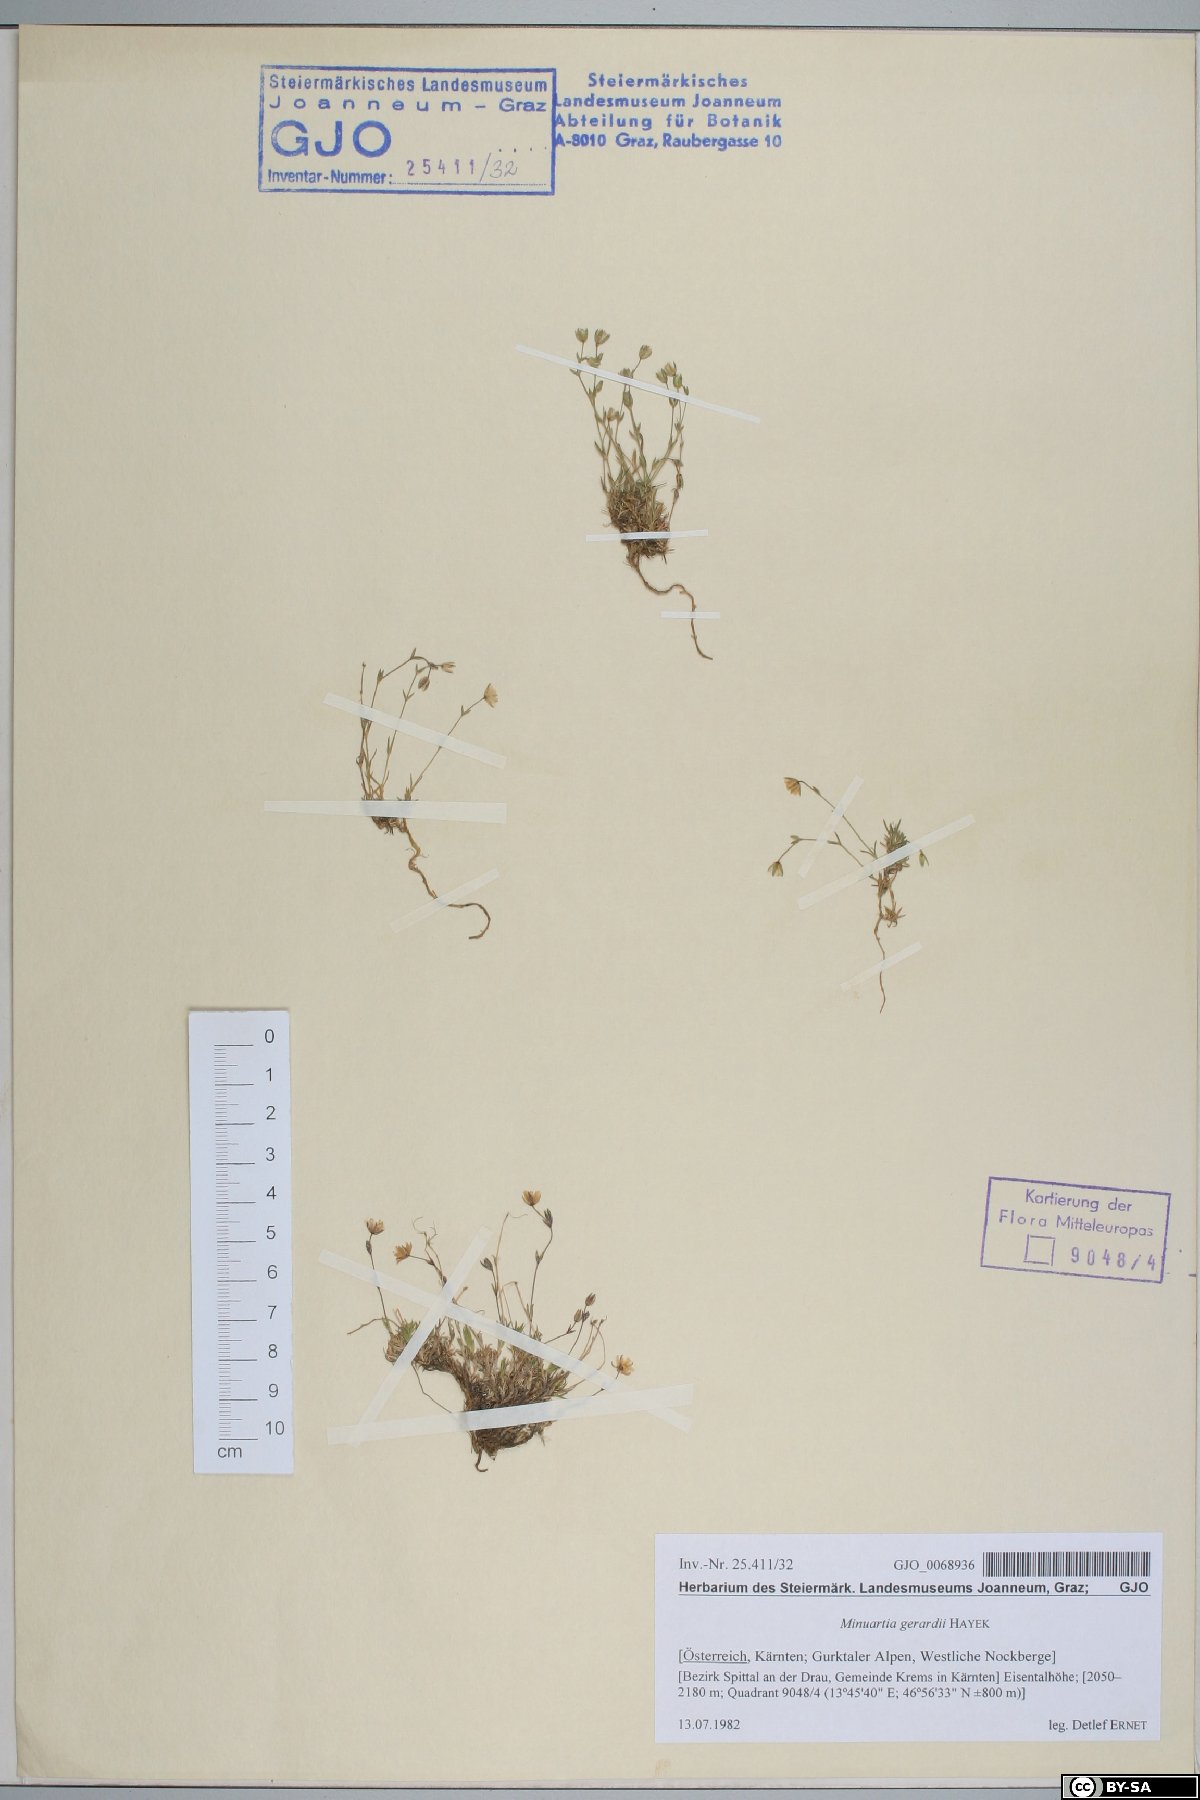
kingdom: Plantae
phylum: Tracheophyta
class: Magnoliopsida
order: Caryophyllales
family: Caryophyllaceae
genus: Sabulina
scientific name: Sabulina verna
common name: Spring sandwort
